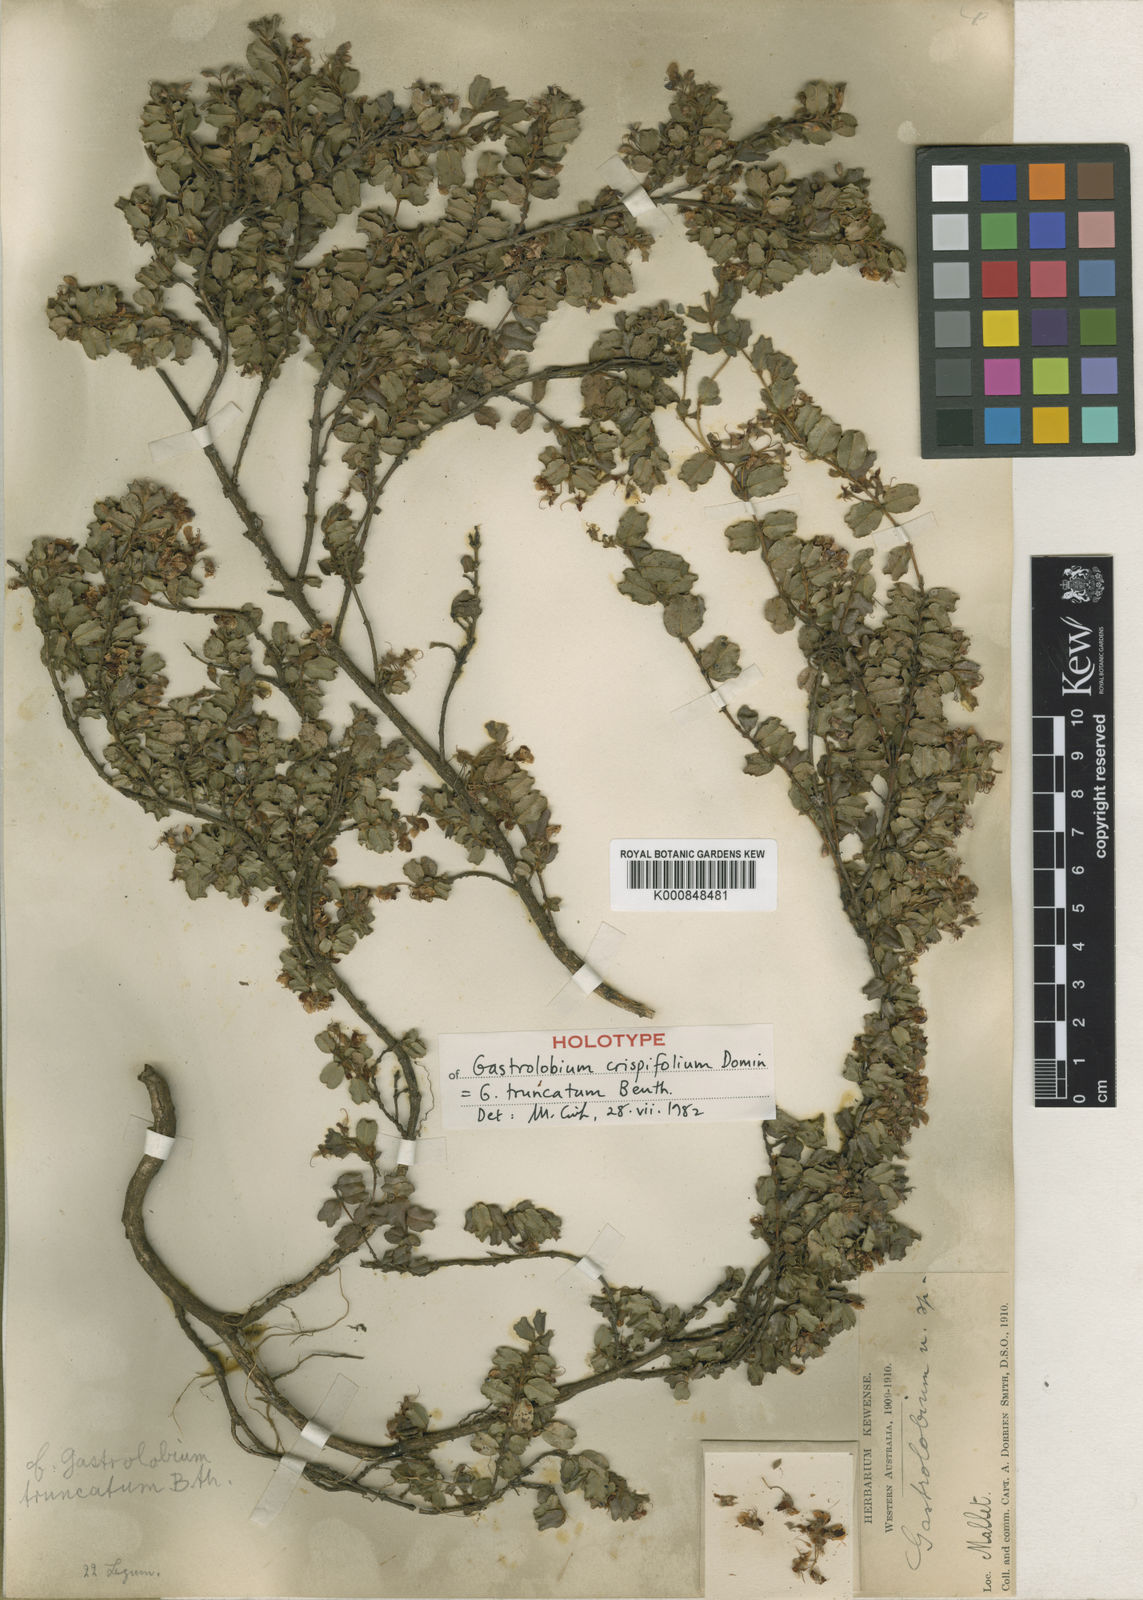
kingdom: Plantae
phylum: Tracheophyta
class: Magnoliopsida
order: Fabales
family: Fabaceae
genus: Gastrolobium
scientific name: Gastrolobium truncatum
